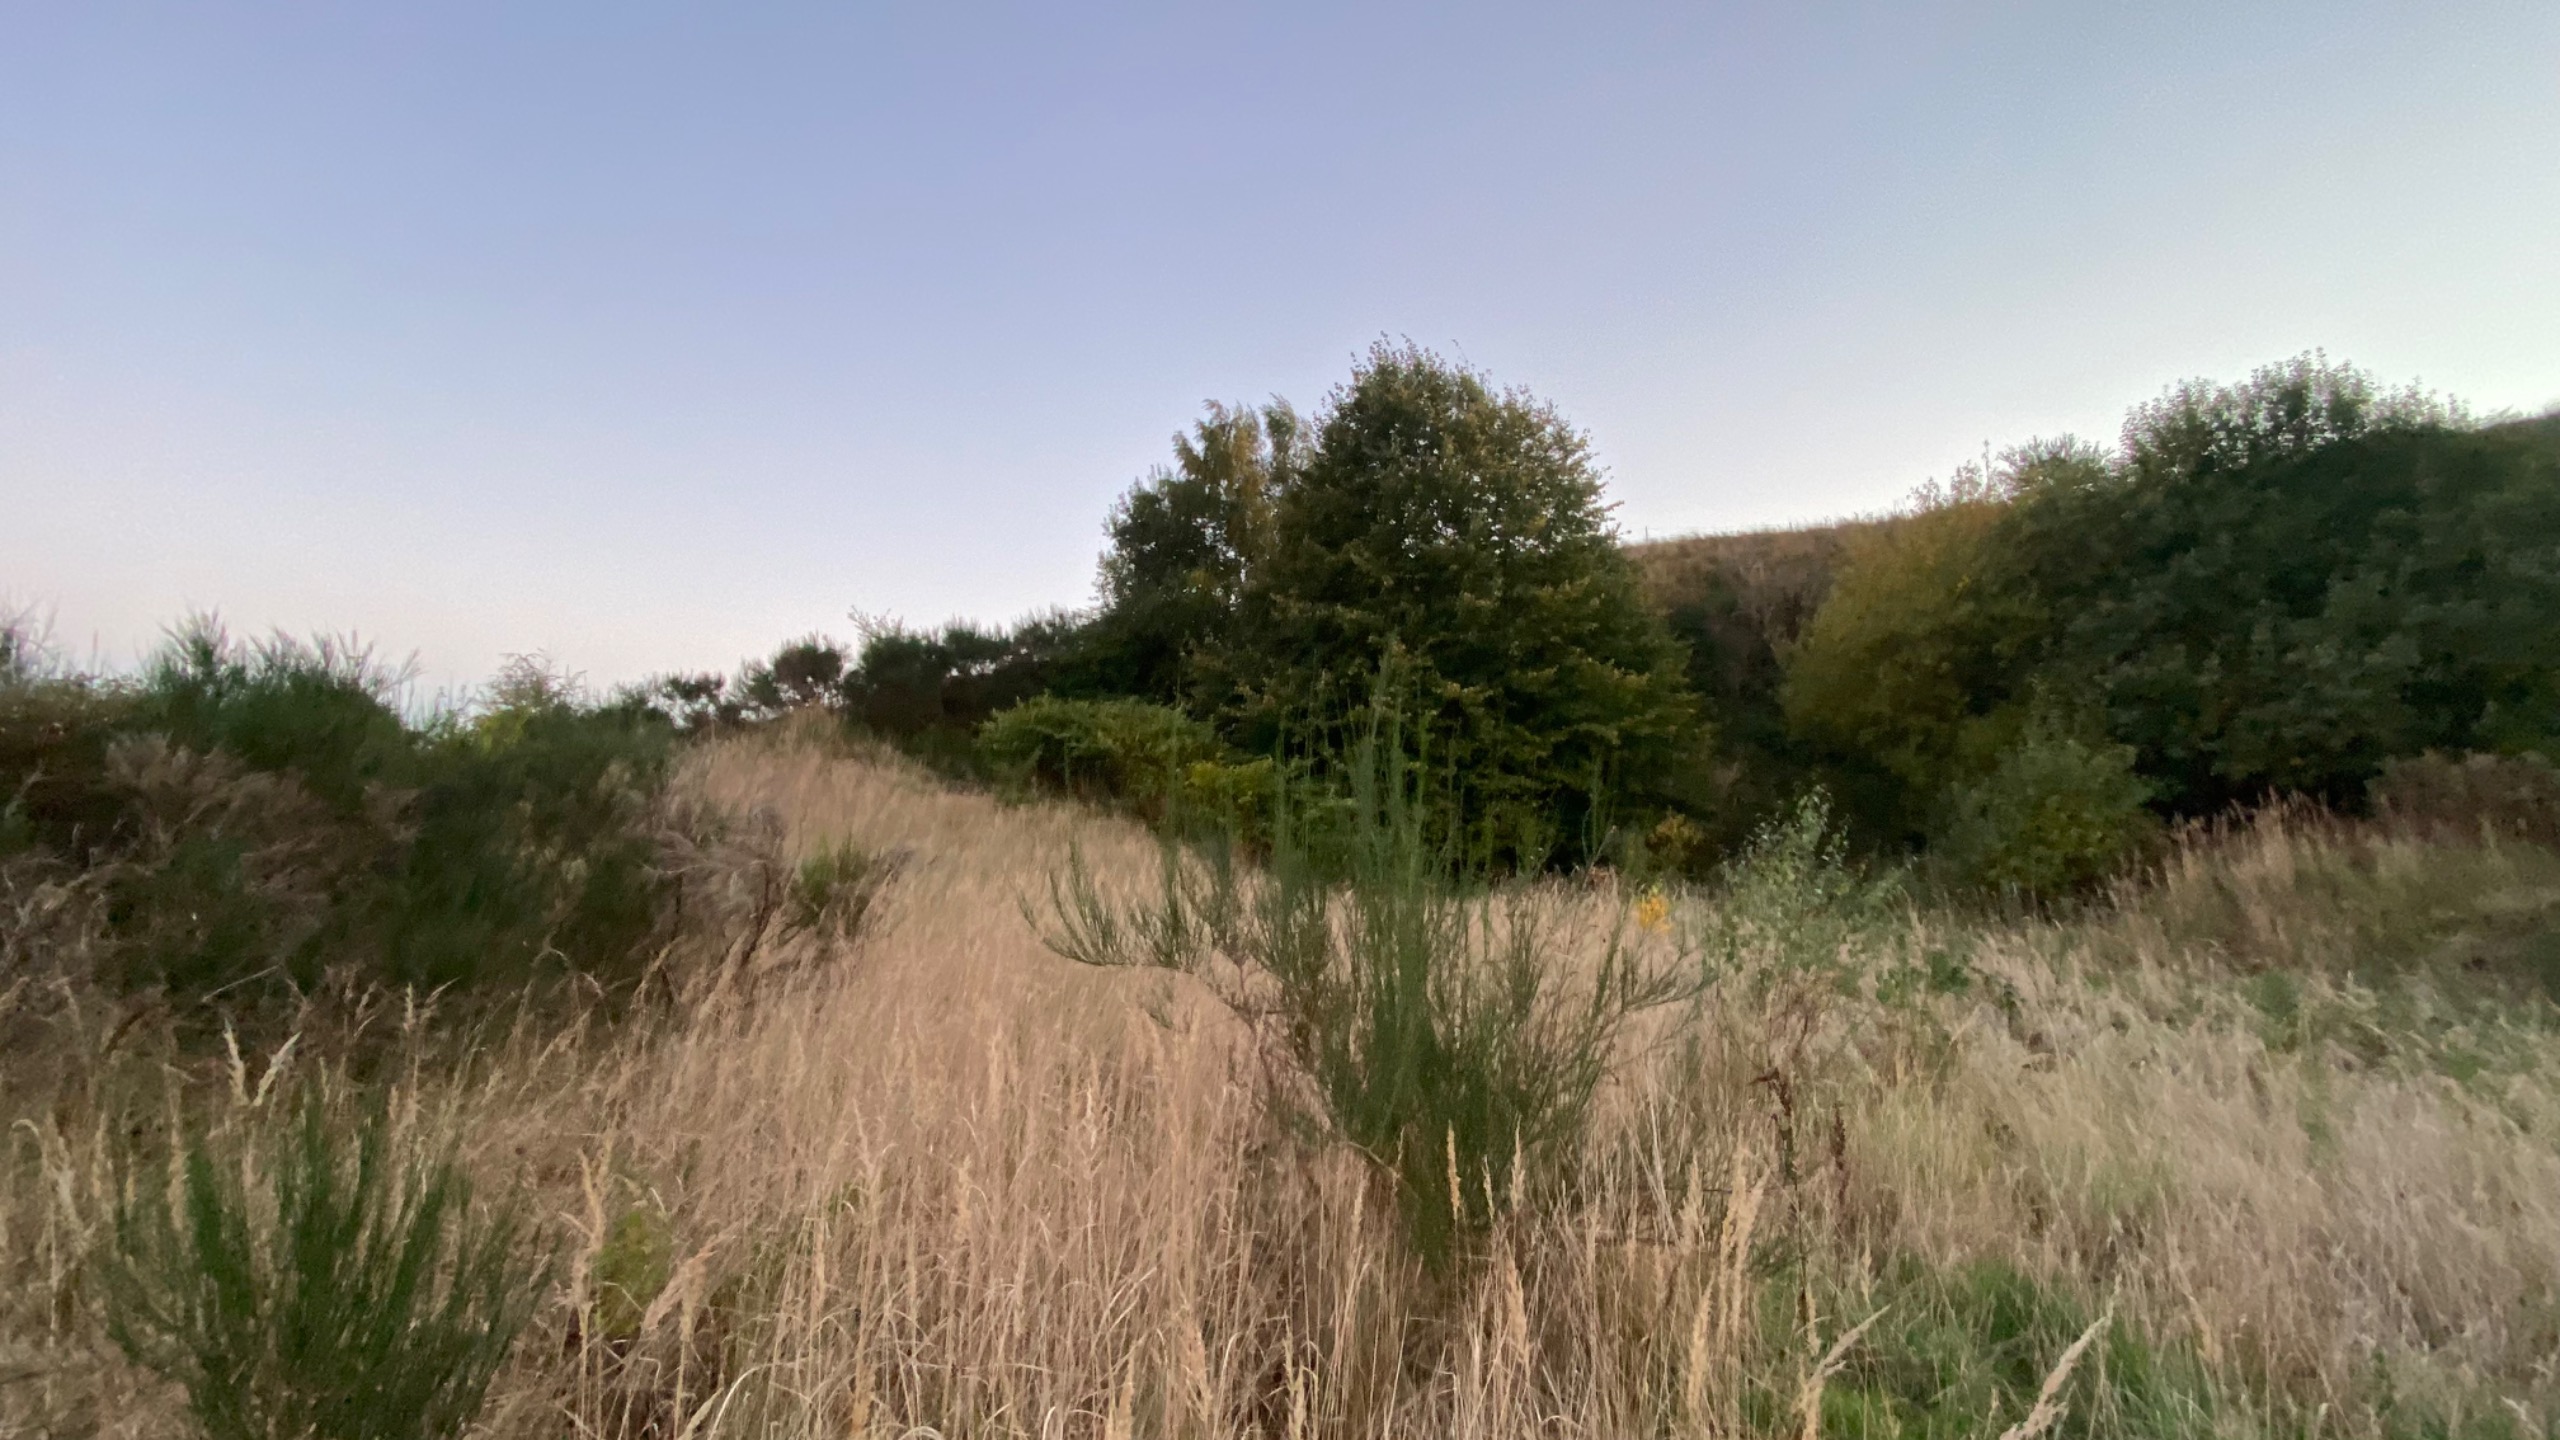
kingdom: Plantae
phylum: Tracheophyta
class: Magnoliopsida
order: Caryophyllales
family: Polygonaceae
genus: Reynoutria
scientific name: Reynoutria japonica
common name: Japan-pileurt
